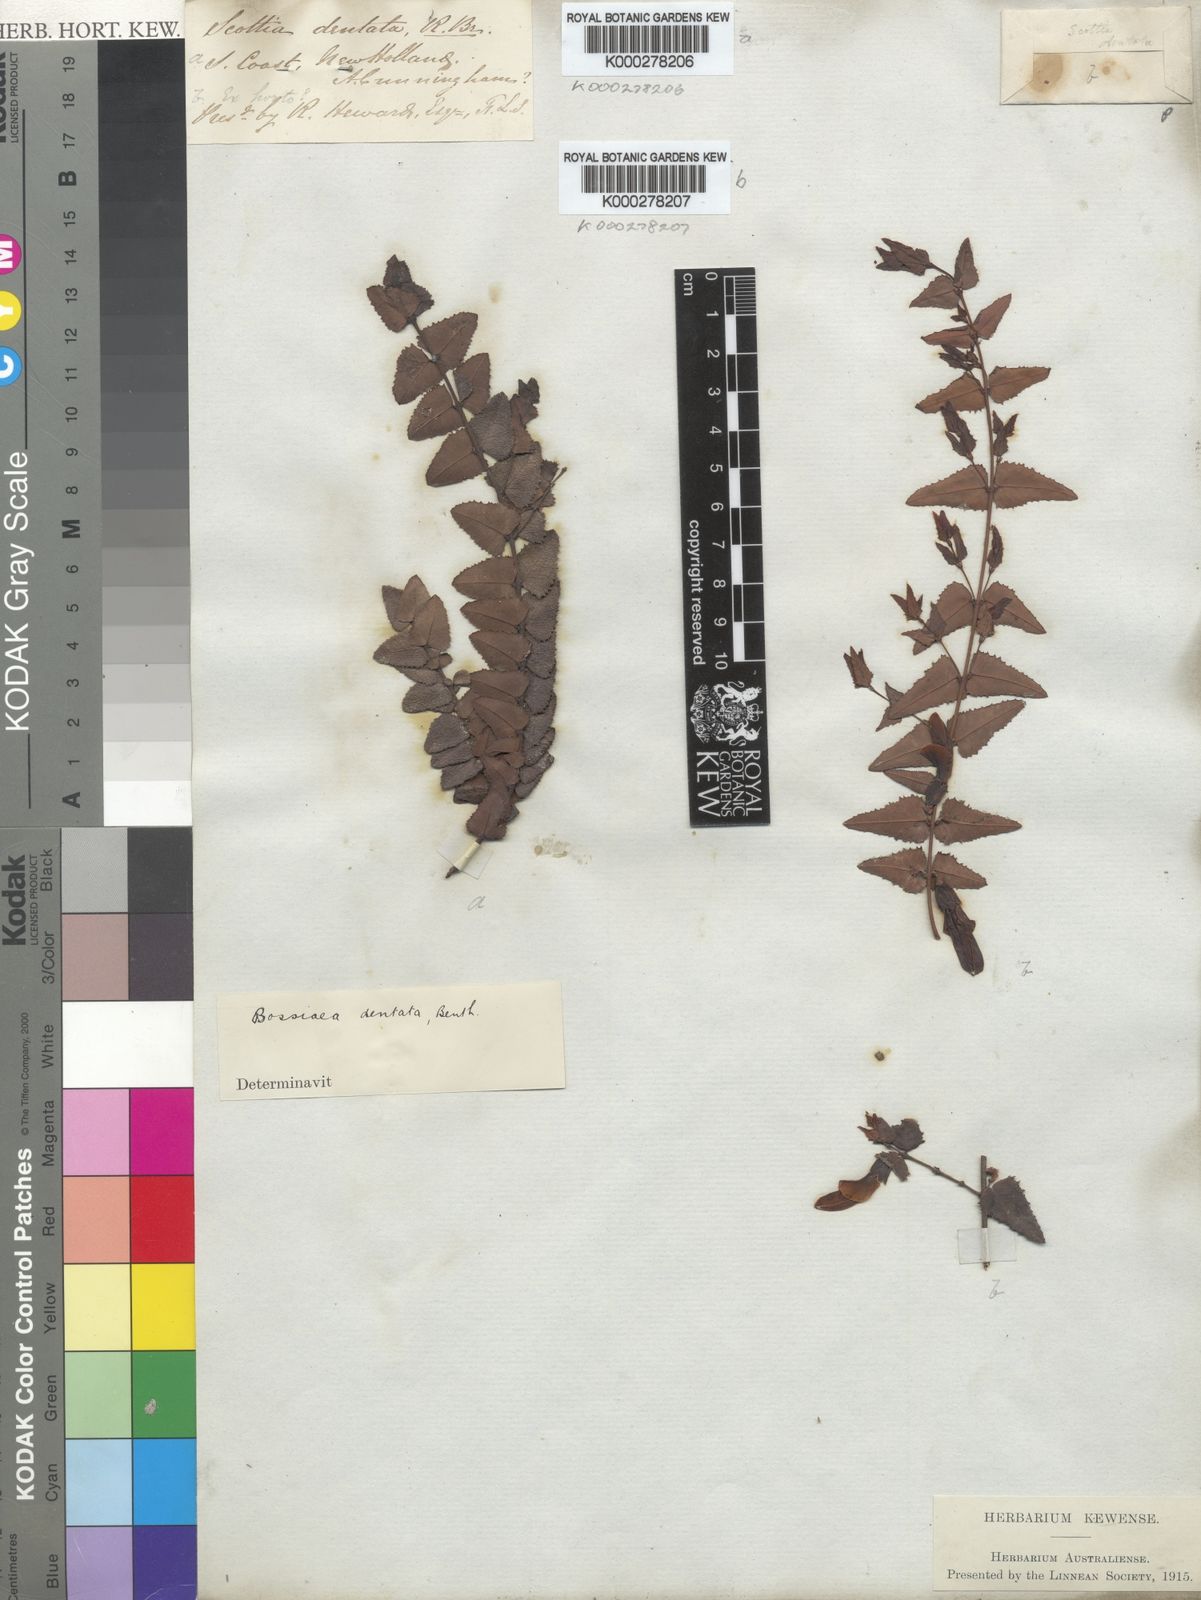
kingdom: Plantae
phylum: Tracheophyta
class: Magnoliopsida
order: Fabales
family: Fabaceae
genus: Bossiaea
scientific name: Bossiaea dentata
